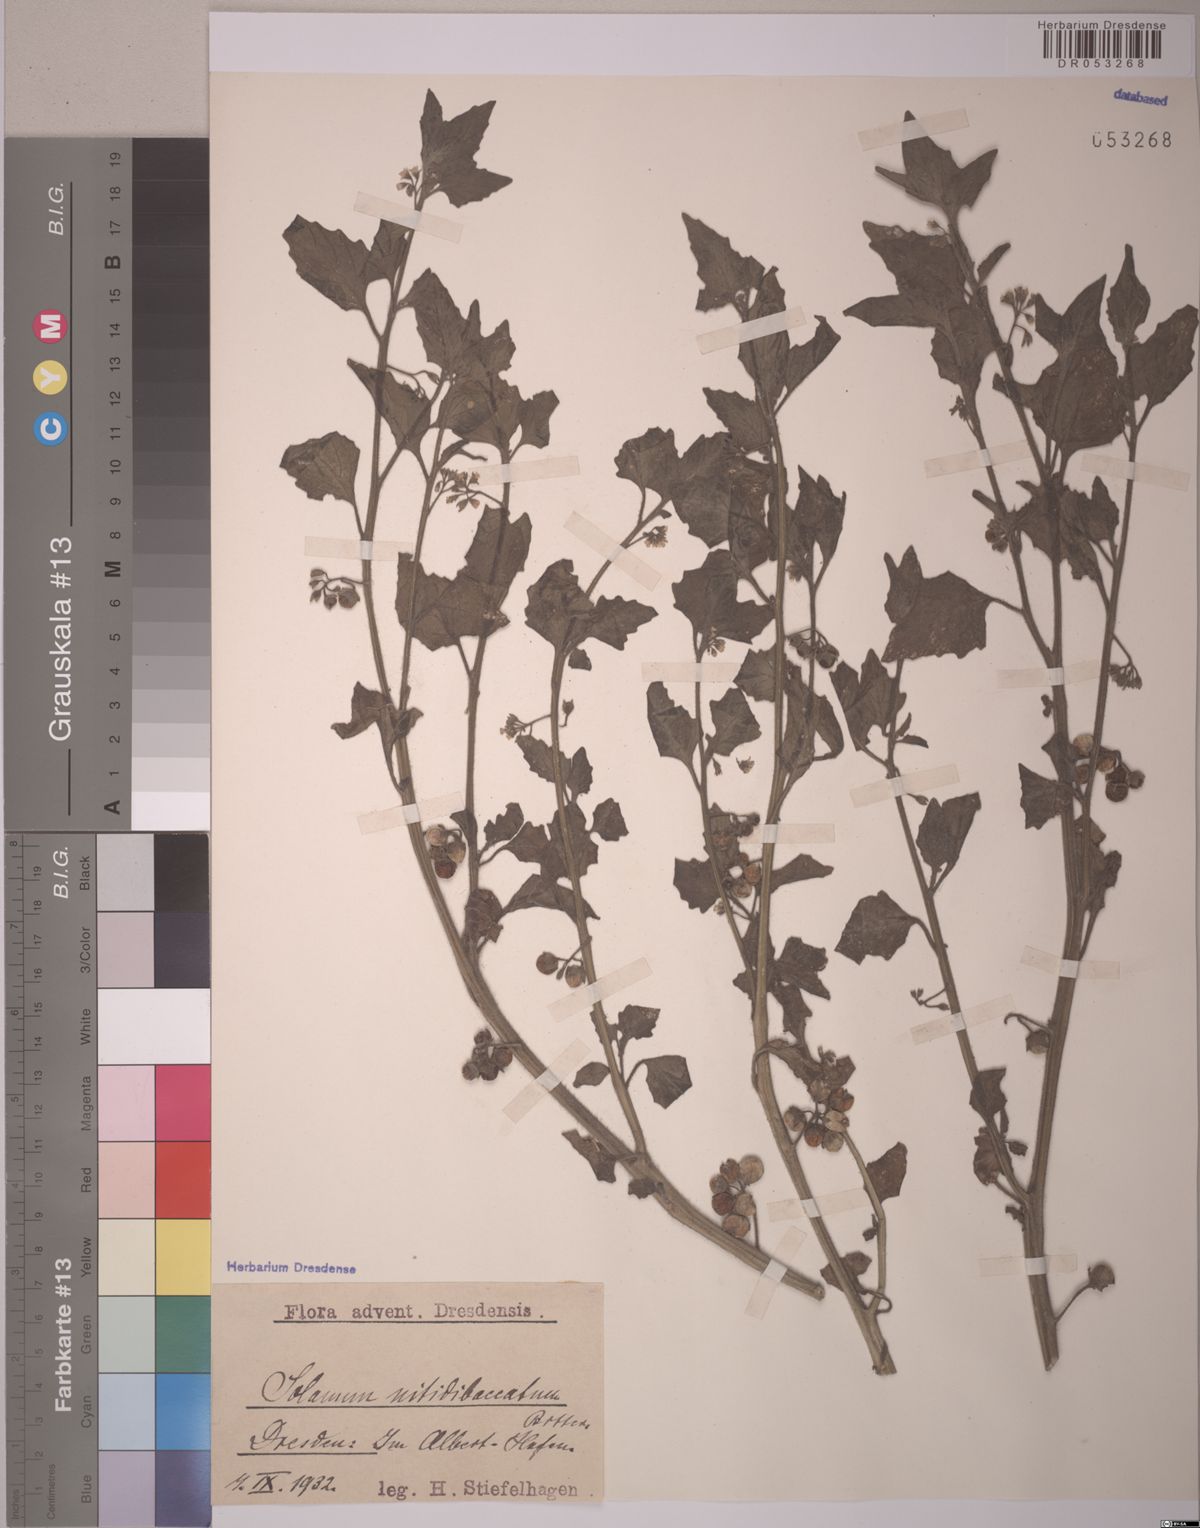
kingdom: Plantae
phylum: Tracheophyta
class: Magnoliopsida
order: Solanales
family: Solanaceae
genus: Solanum
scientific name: Solanum nitidibaccatum
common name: Hairy nightshade
